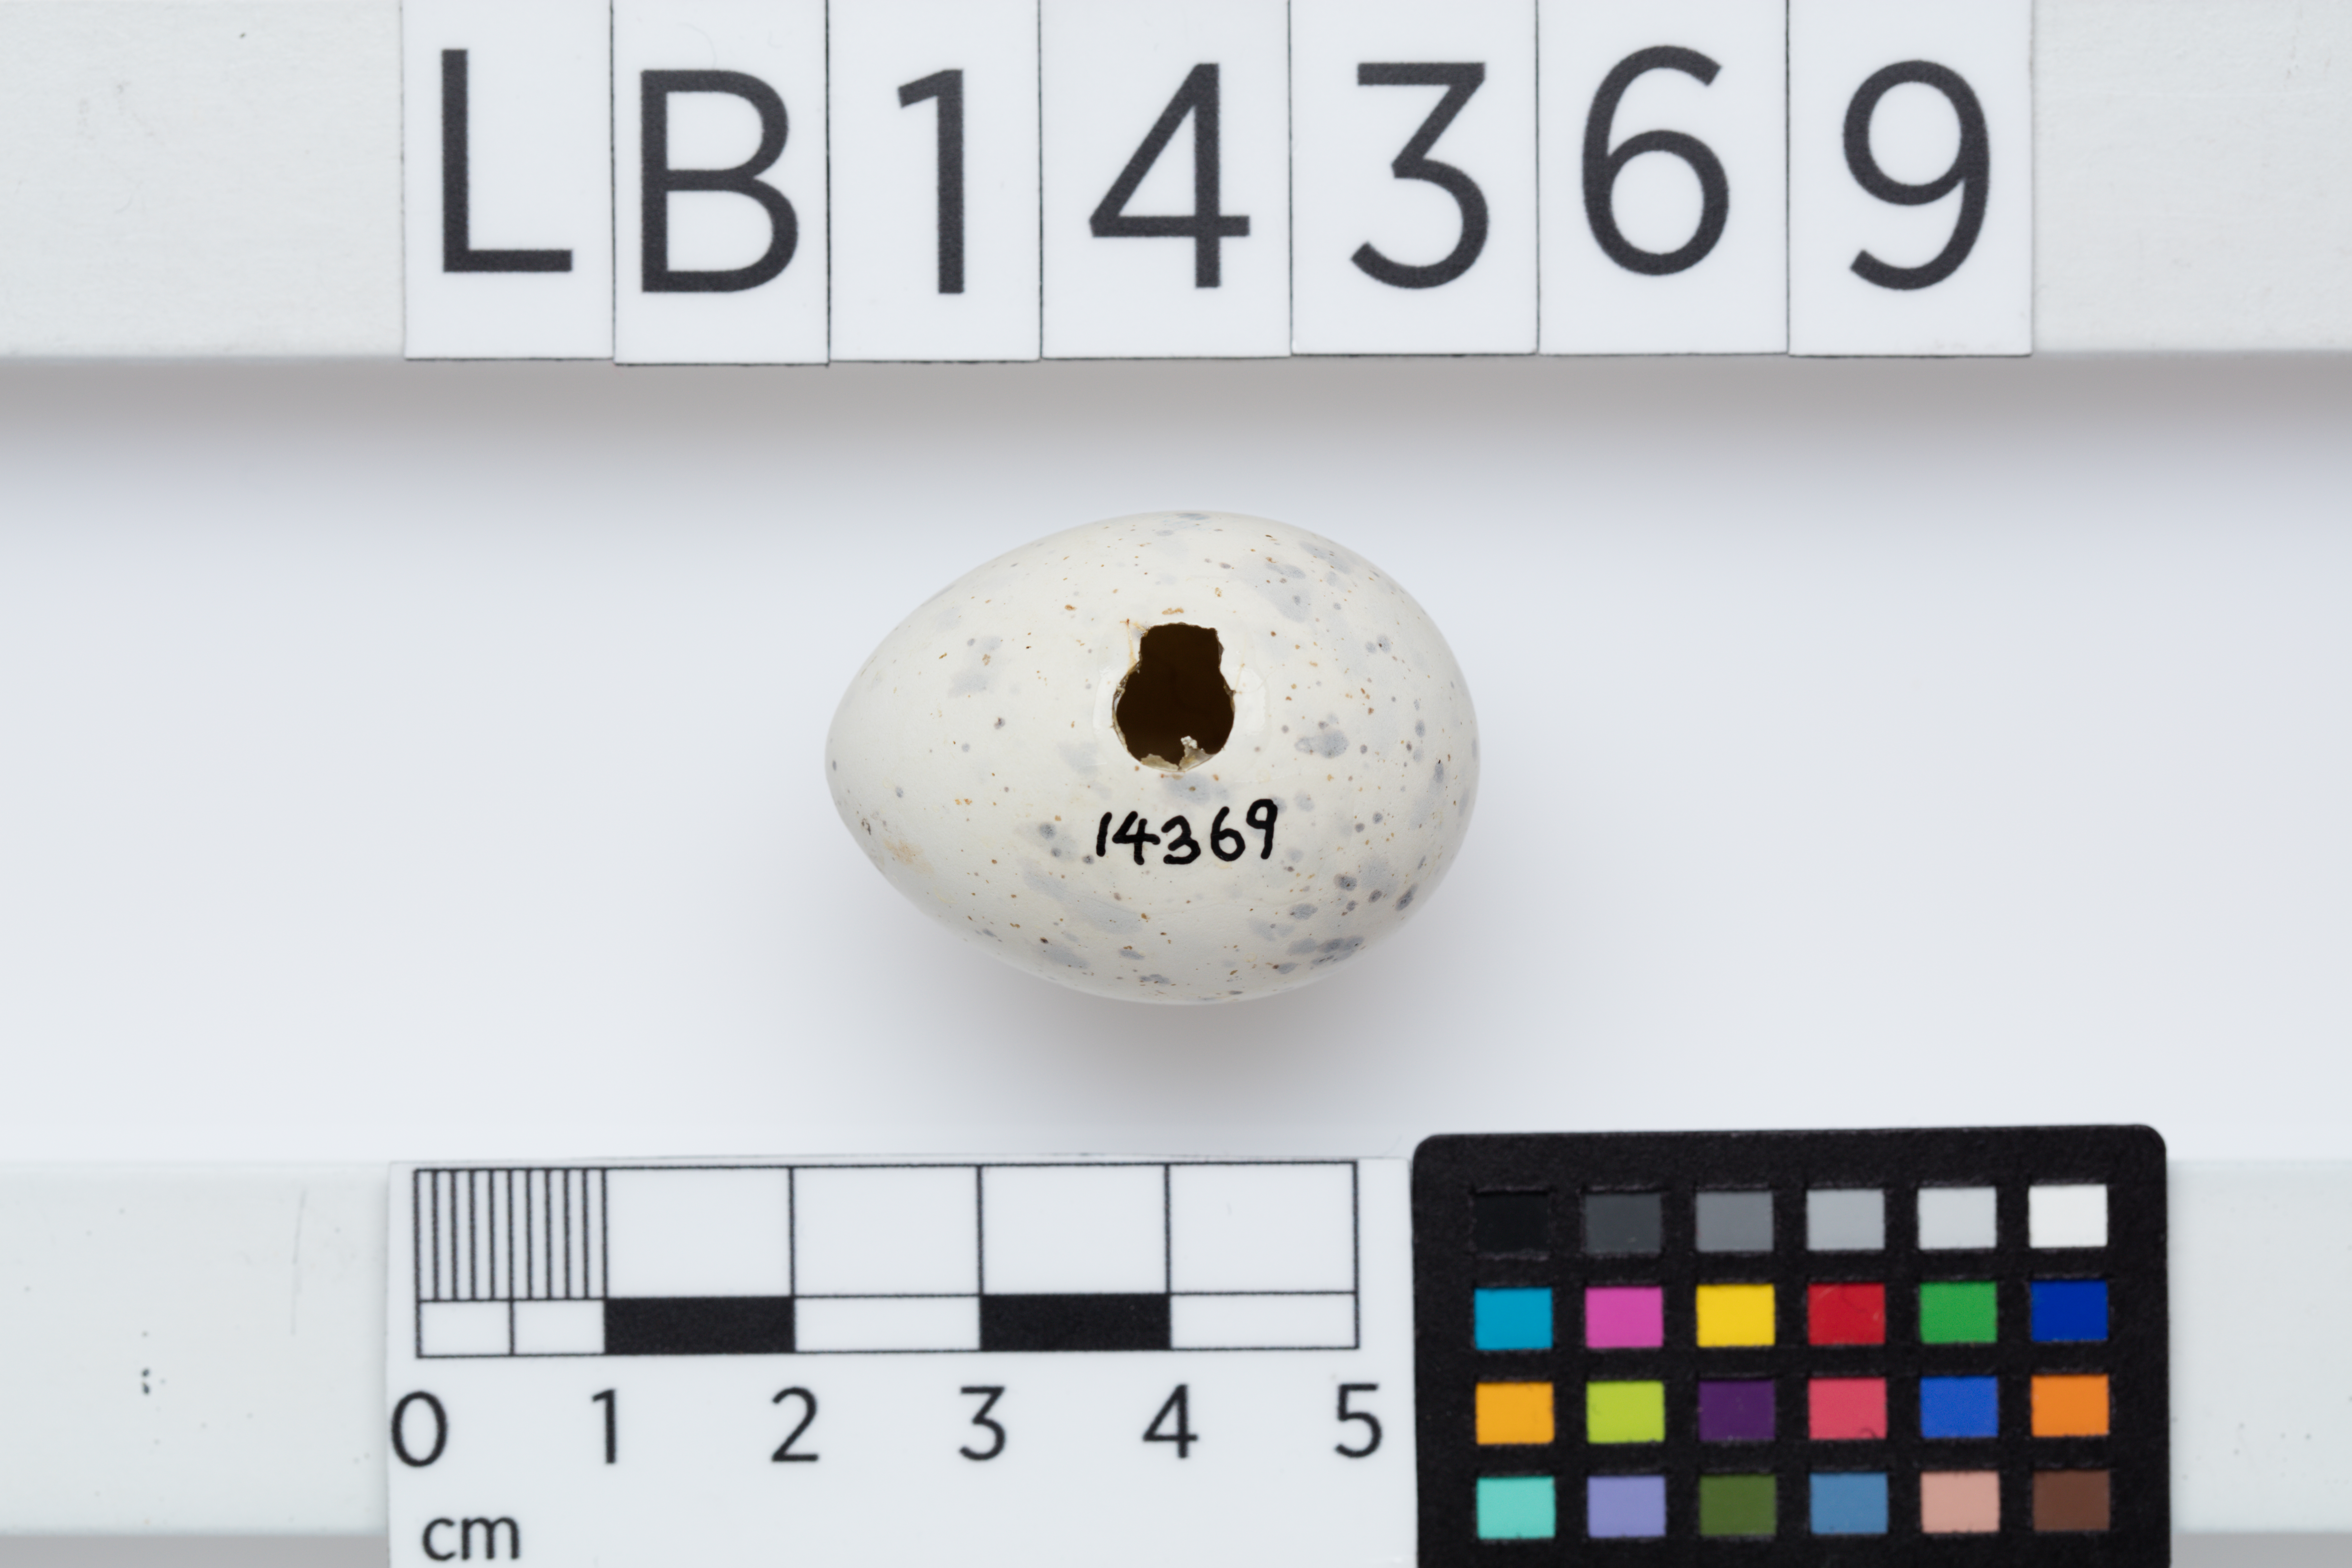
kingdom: Animalia
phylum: Chordata
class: Aves
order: Charadriiformes
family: Laridae
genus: Sternula
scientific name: Sternula nereis
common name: Fairy tern
